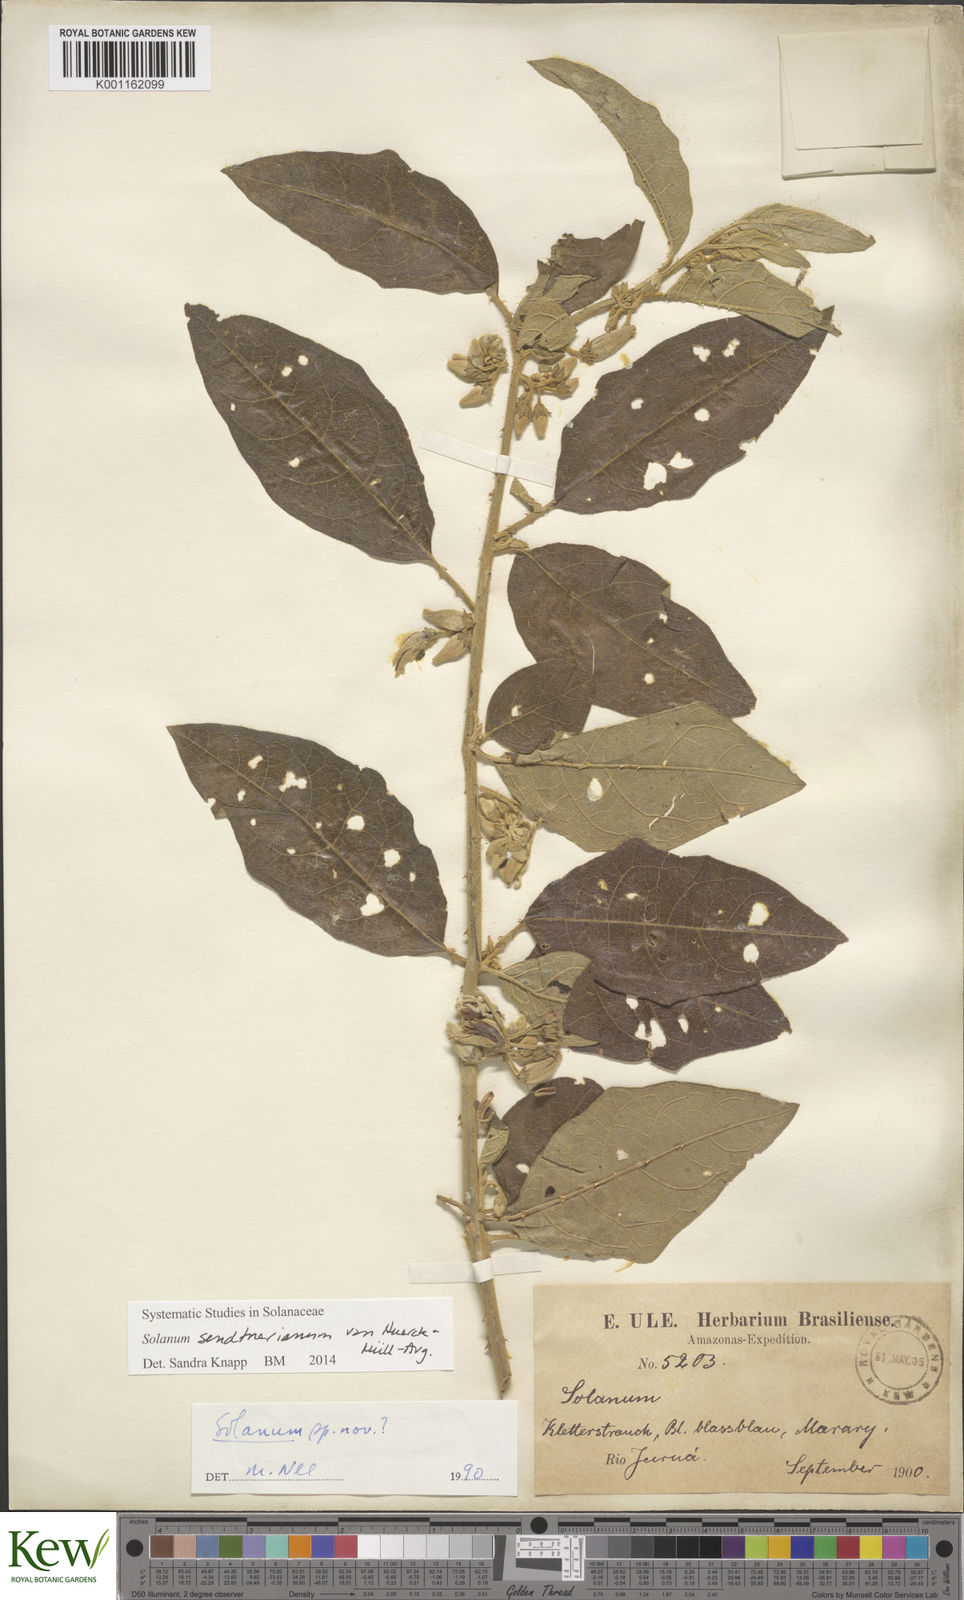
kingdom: Plantae
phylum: Tracheophyta
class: Magnoliopsida
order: Solanales
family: Solanaceae
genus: Solanum
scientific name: Solanum
